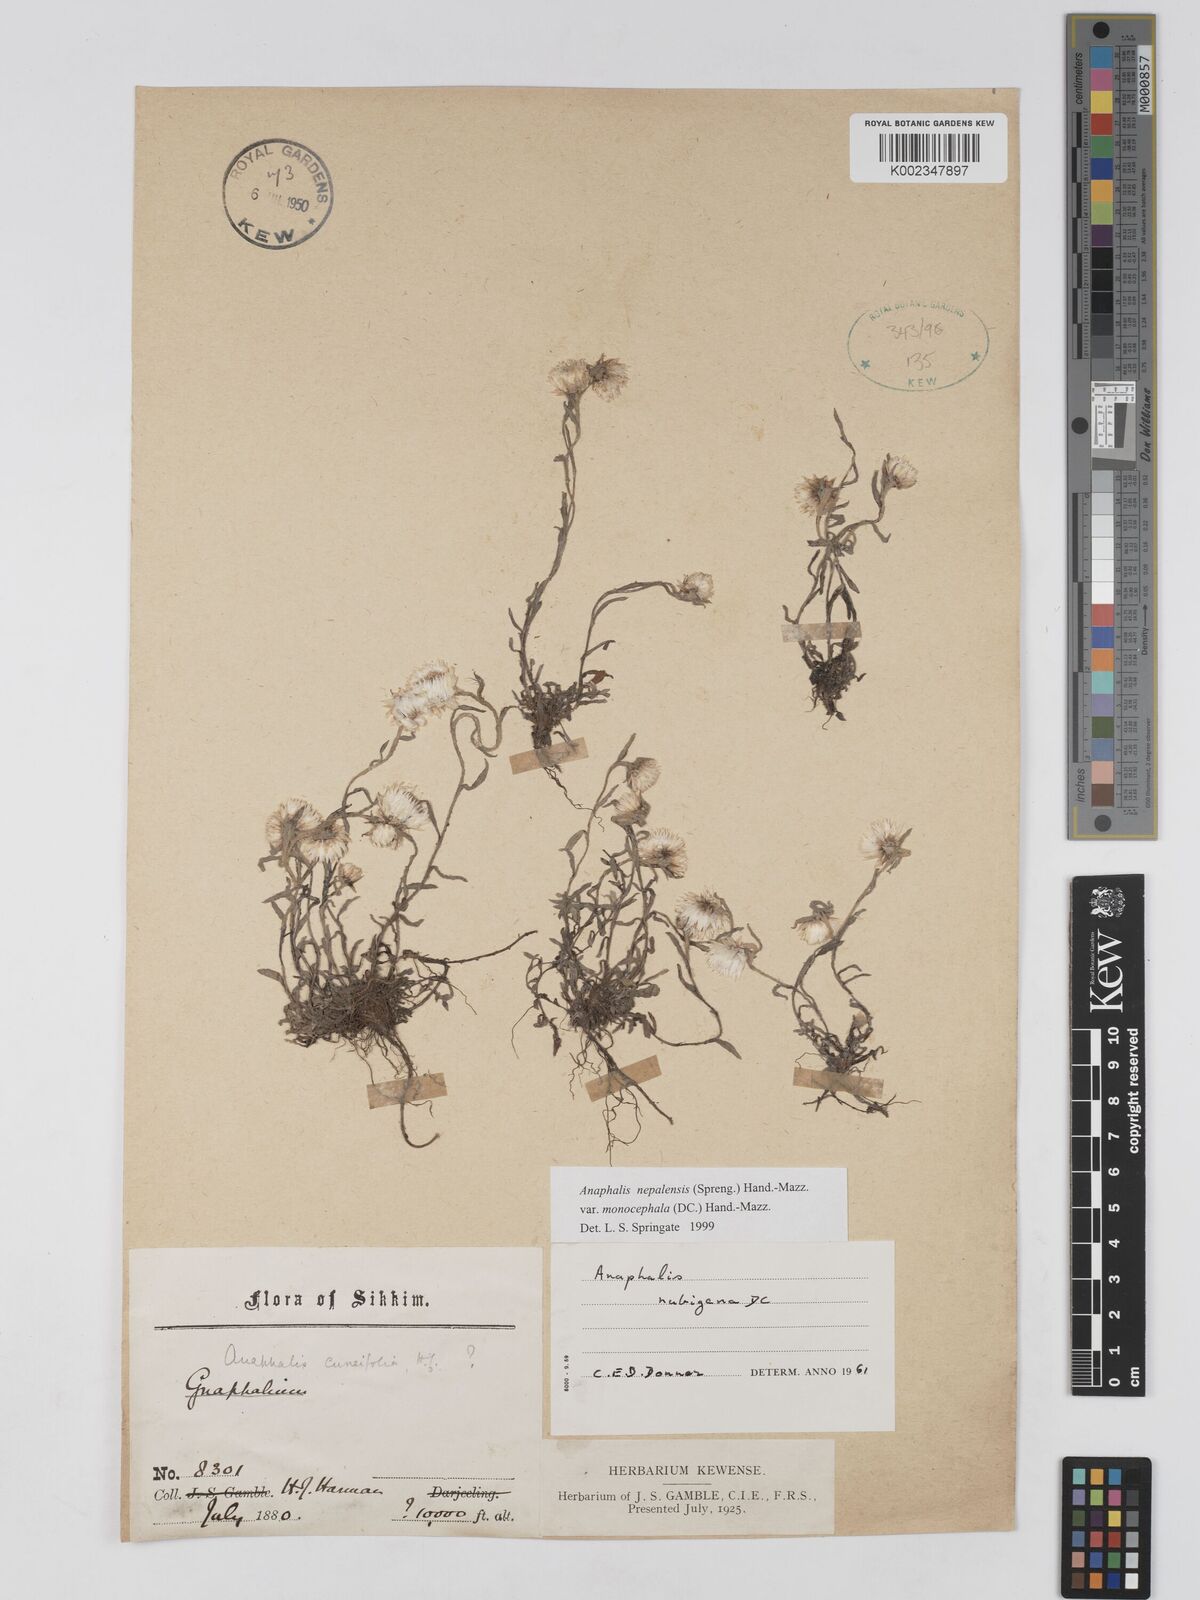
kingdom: Plantae
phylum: Tracheophyta
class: Magnoliopsida
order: Asterales
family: Asteraceae
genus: Anaphalis
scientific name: Anaphalis nepalensis
